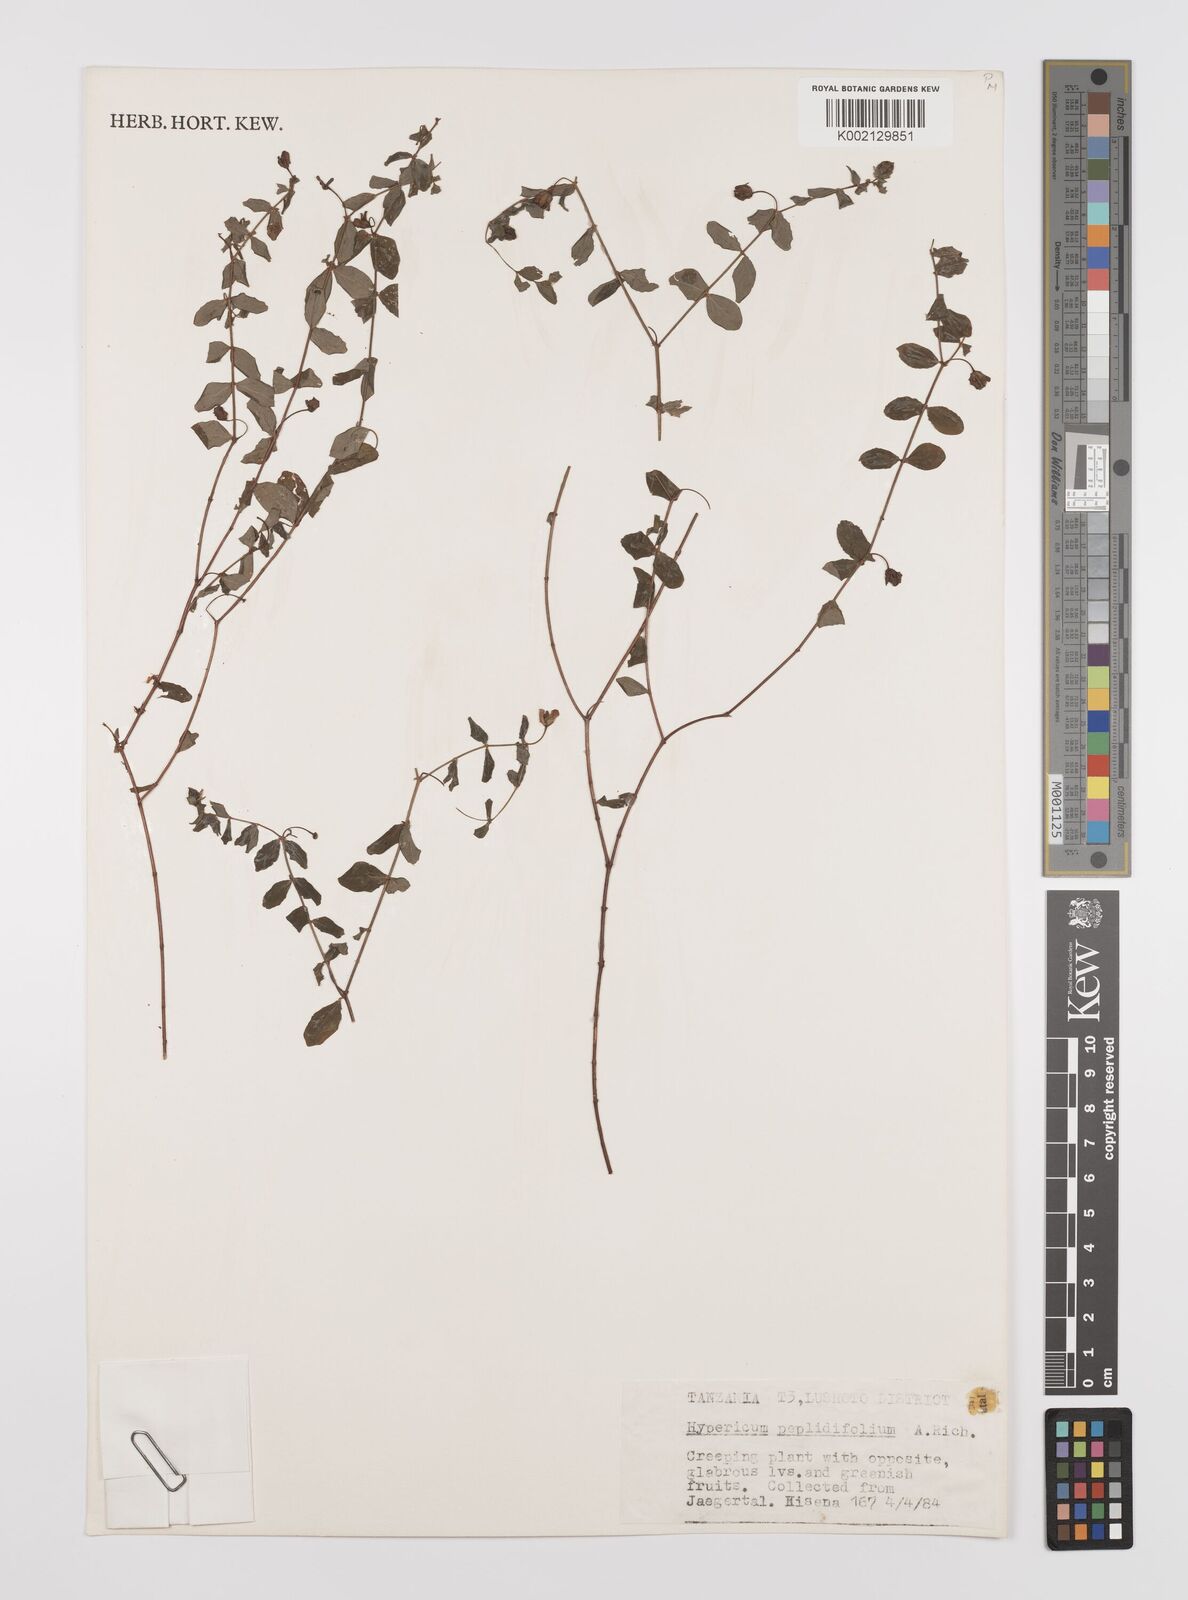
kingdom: Plantae
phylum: Tracheophyta
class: Magnoliopsida
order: Malpighiales
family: Hypericaceae
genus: Hypericum
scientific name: Hypericum peplidifolium
